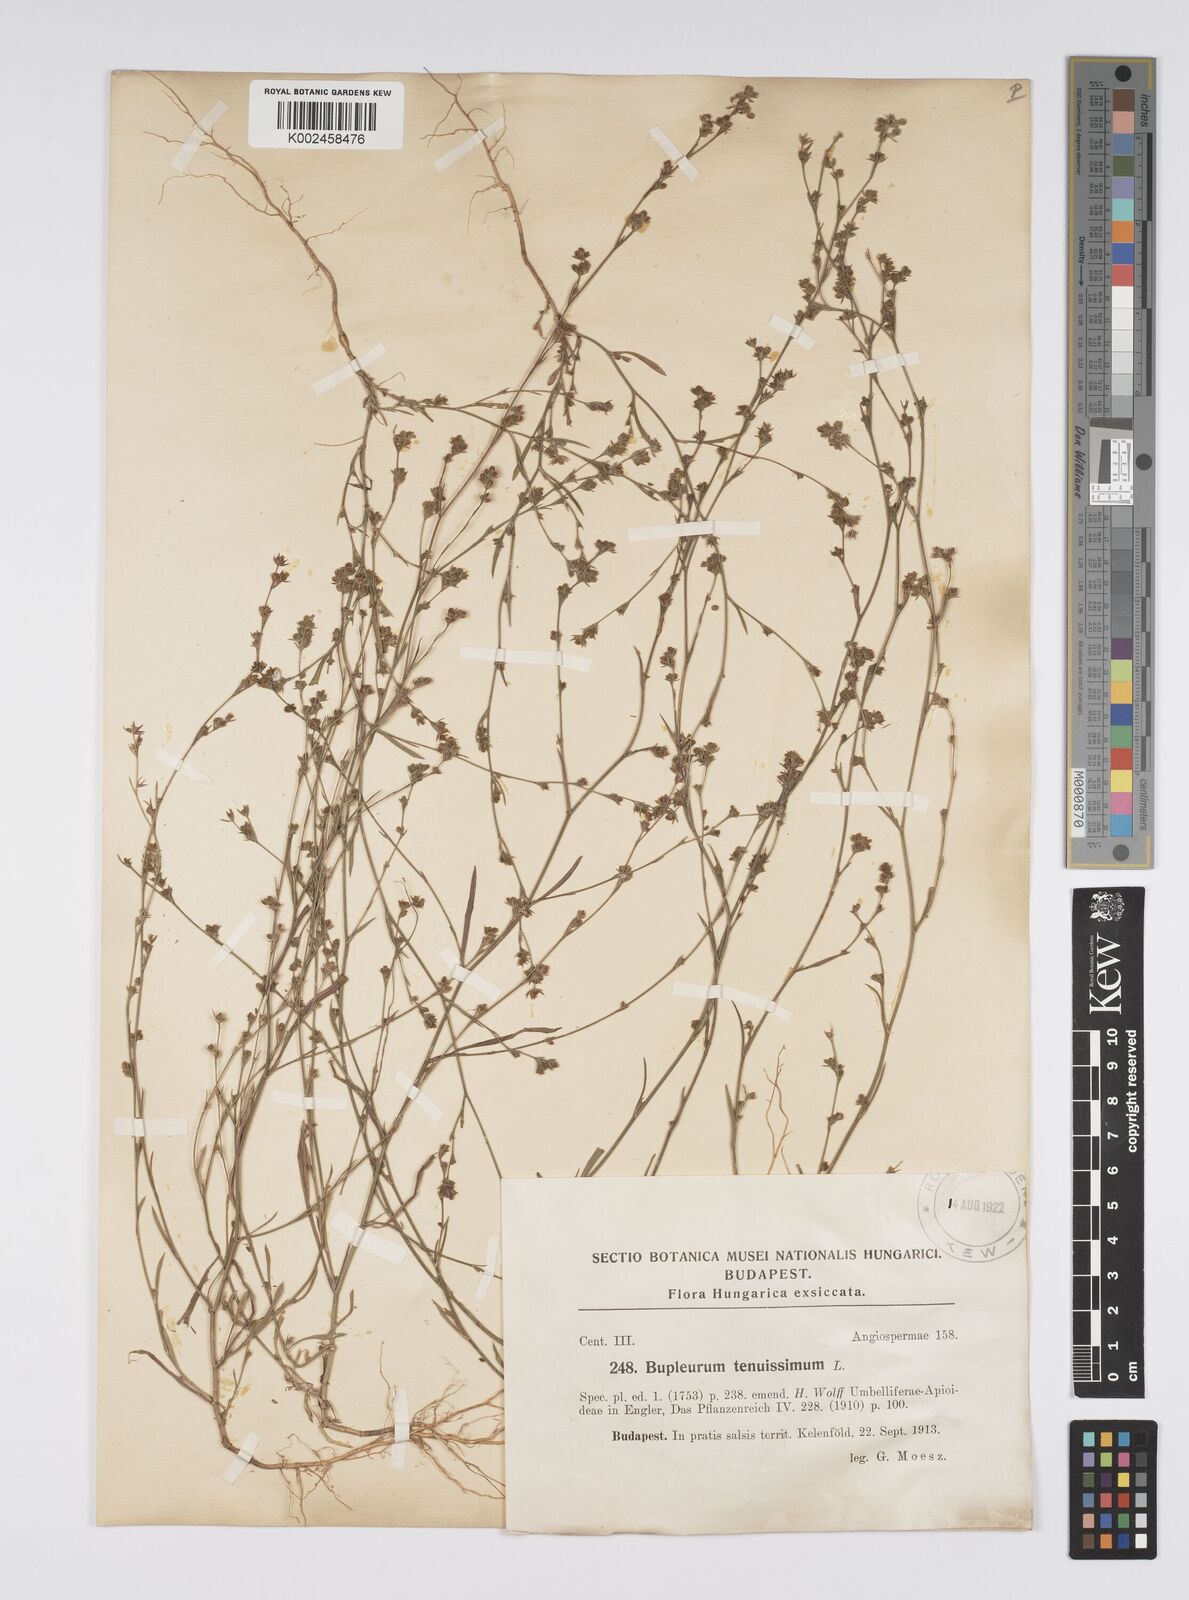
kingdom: Plantae
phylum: Tracheophyta
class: Magnoliopsida
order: Apiales
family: Apiaceae
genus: Bupleurum
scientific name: Bupleurum tenuissimum
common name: Slender hare's-ear
